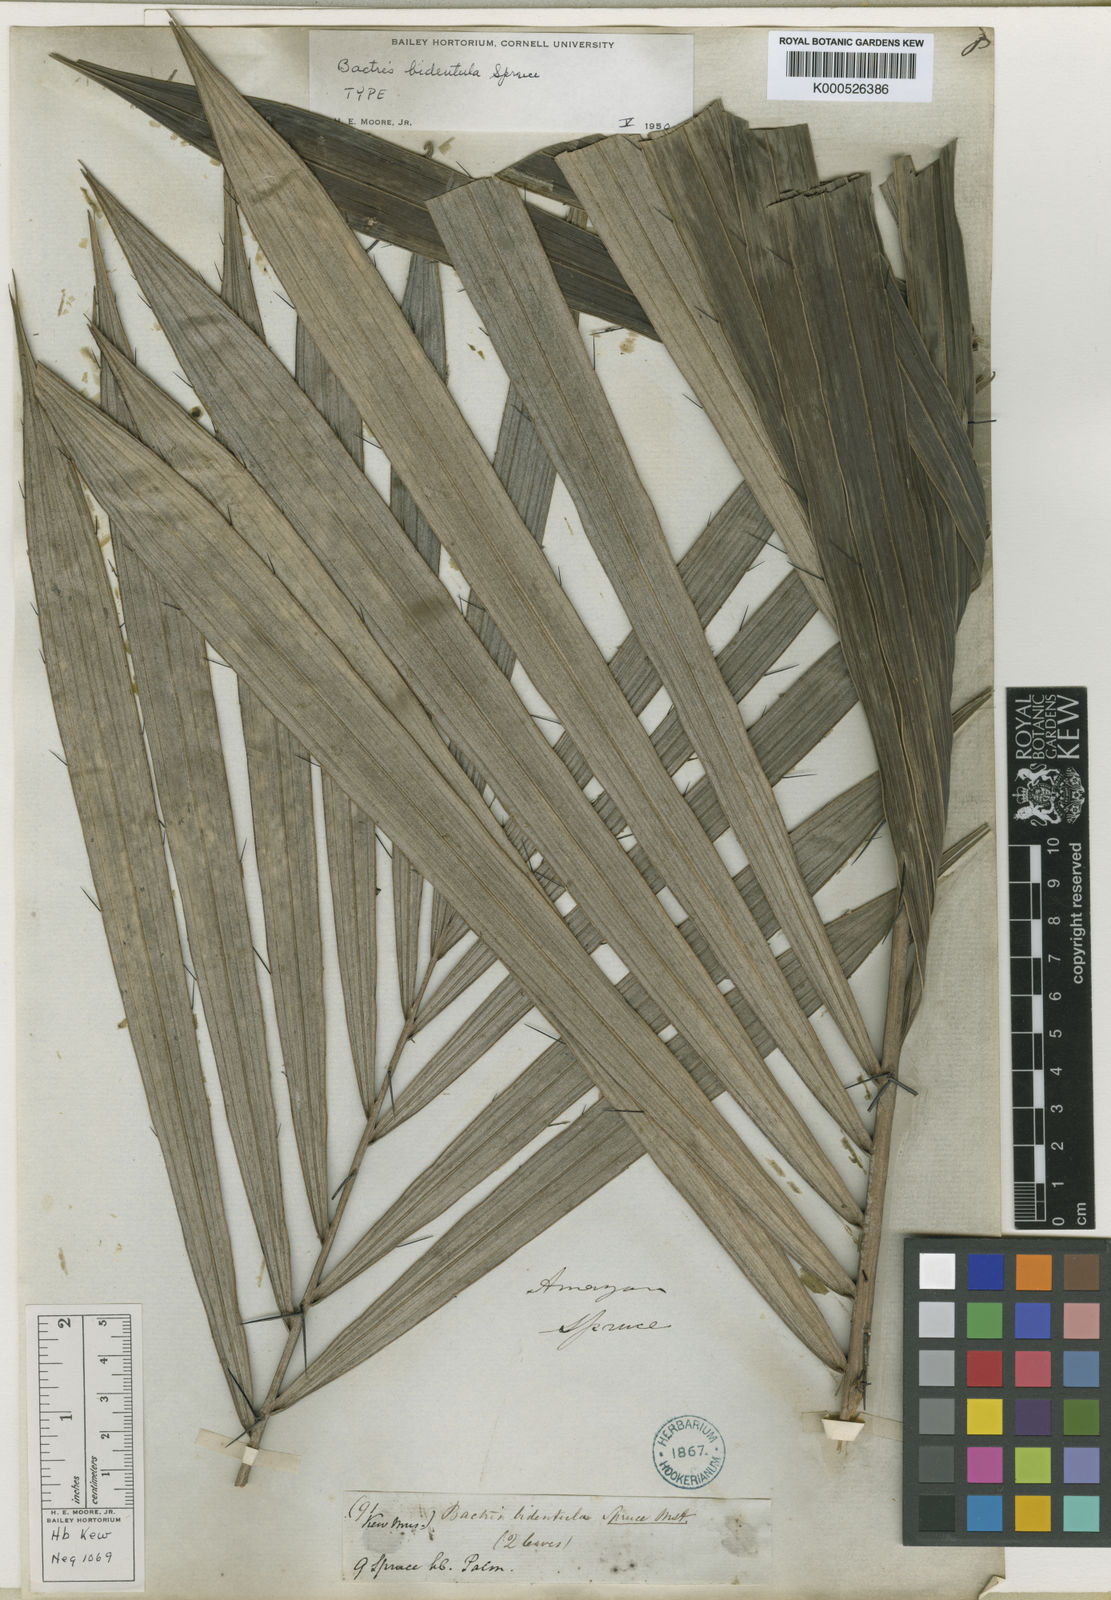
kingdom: Plantae
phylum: Tracheophyta
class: Liliopsida
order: Arecales
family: Arecaceae
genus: Bactris
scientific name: Bactris bidentula
